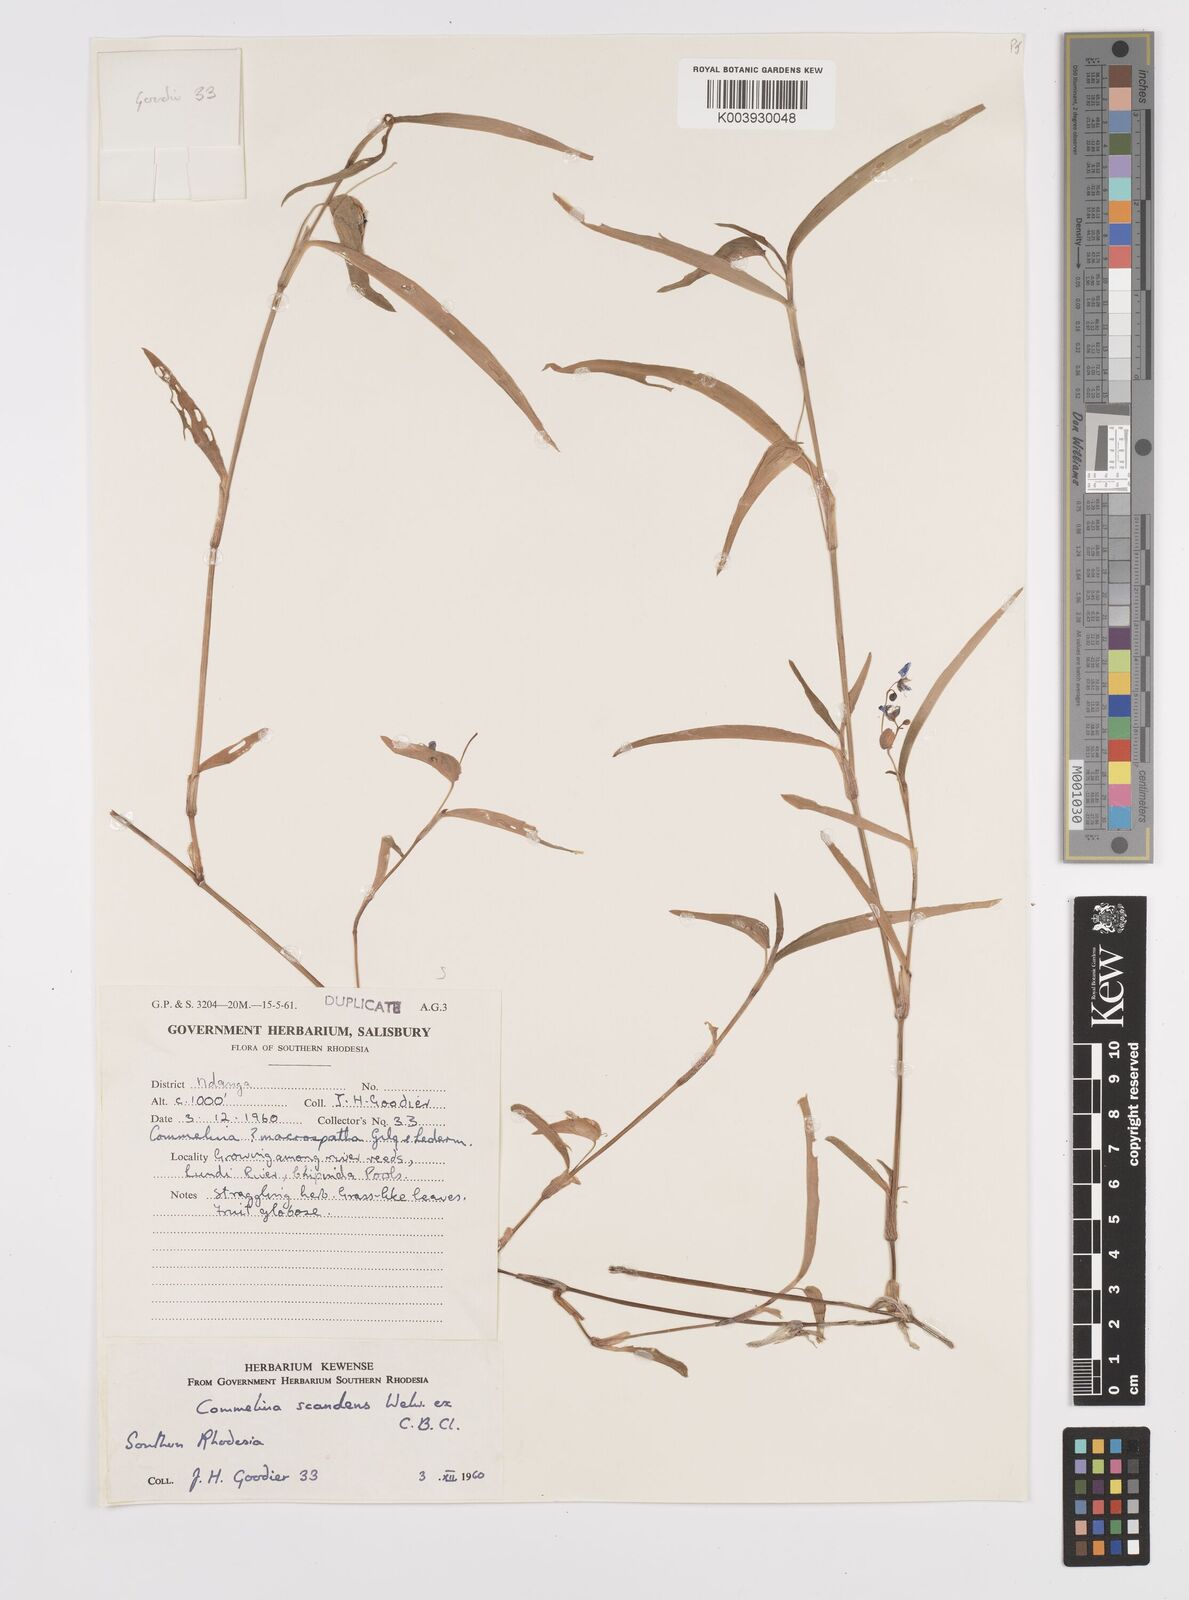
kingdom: Plantae
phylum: Tracheophyta
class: Liliopsida
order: Commelinales
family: Commelinaceae
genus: Commelina
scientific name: Commelina diffusa
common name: Climbing dayflower
